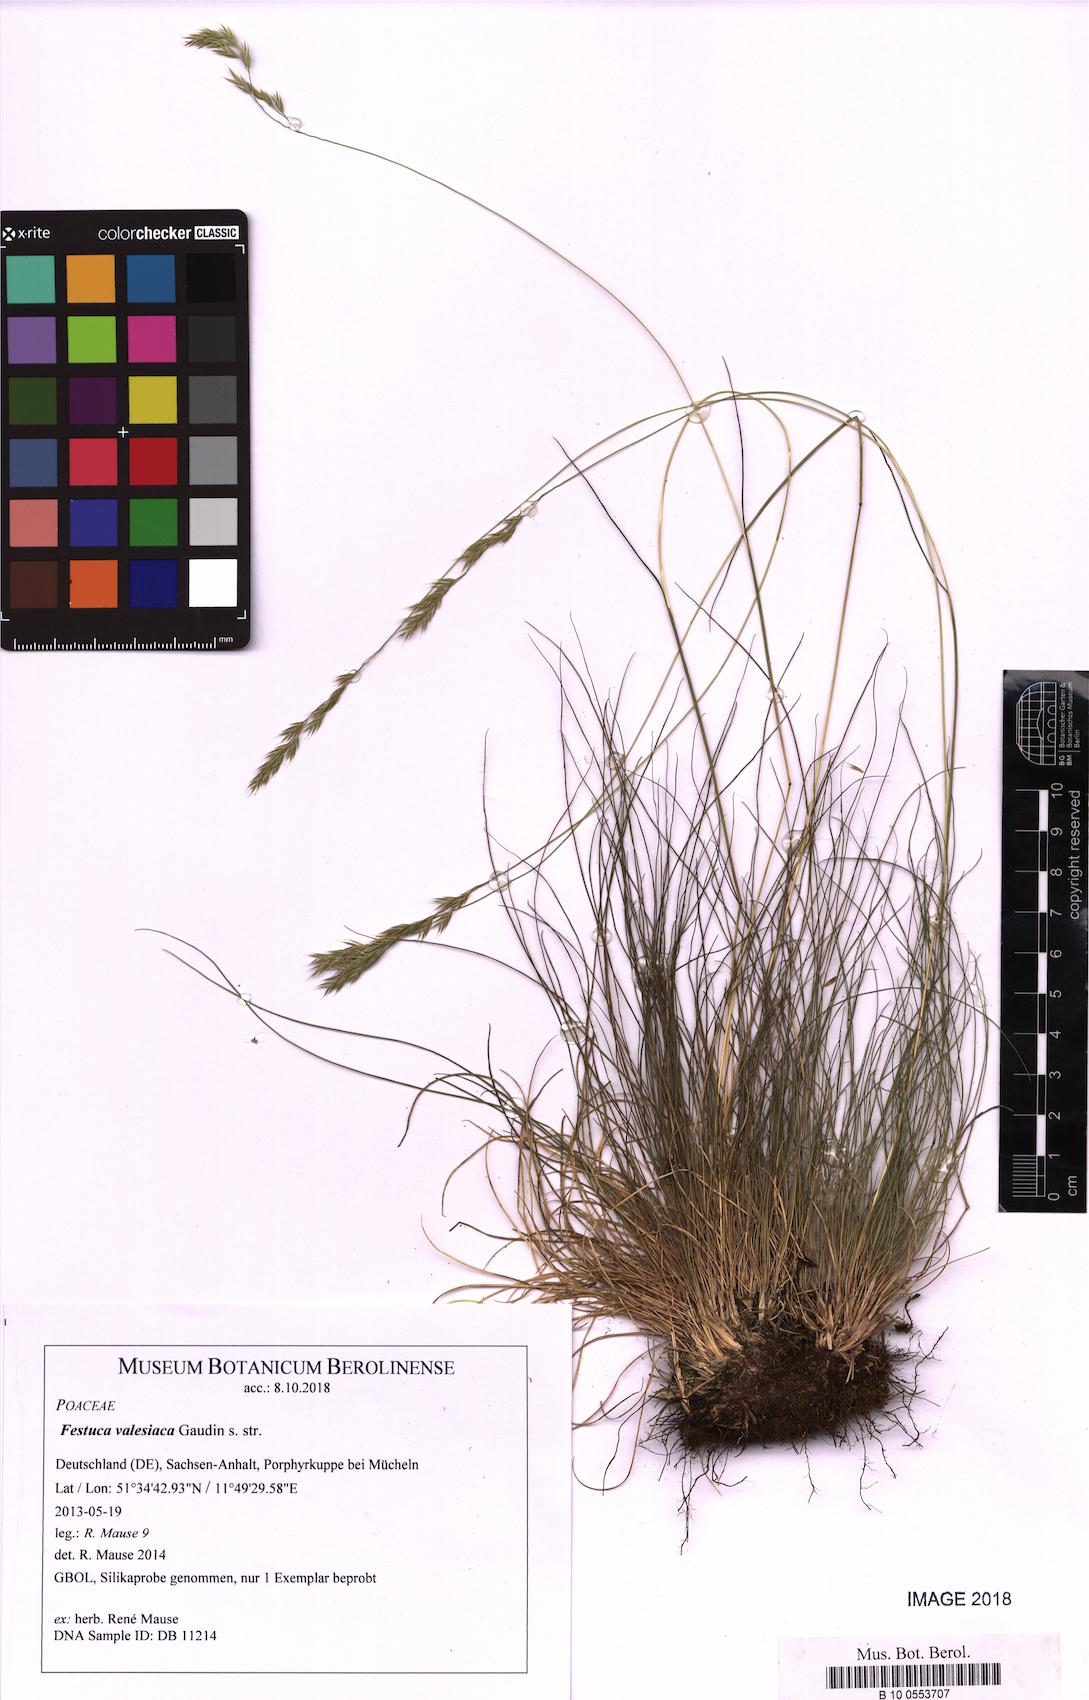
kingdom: Plantae
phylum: Tracheophyta
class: Liliopsida
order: Poales
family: Poaceae
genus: Festuca
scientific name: Festuca valesiaca
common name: Volga fescue
